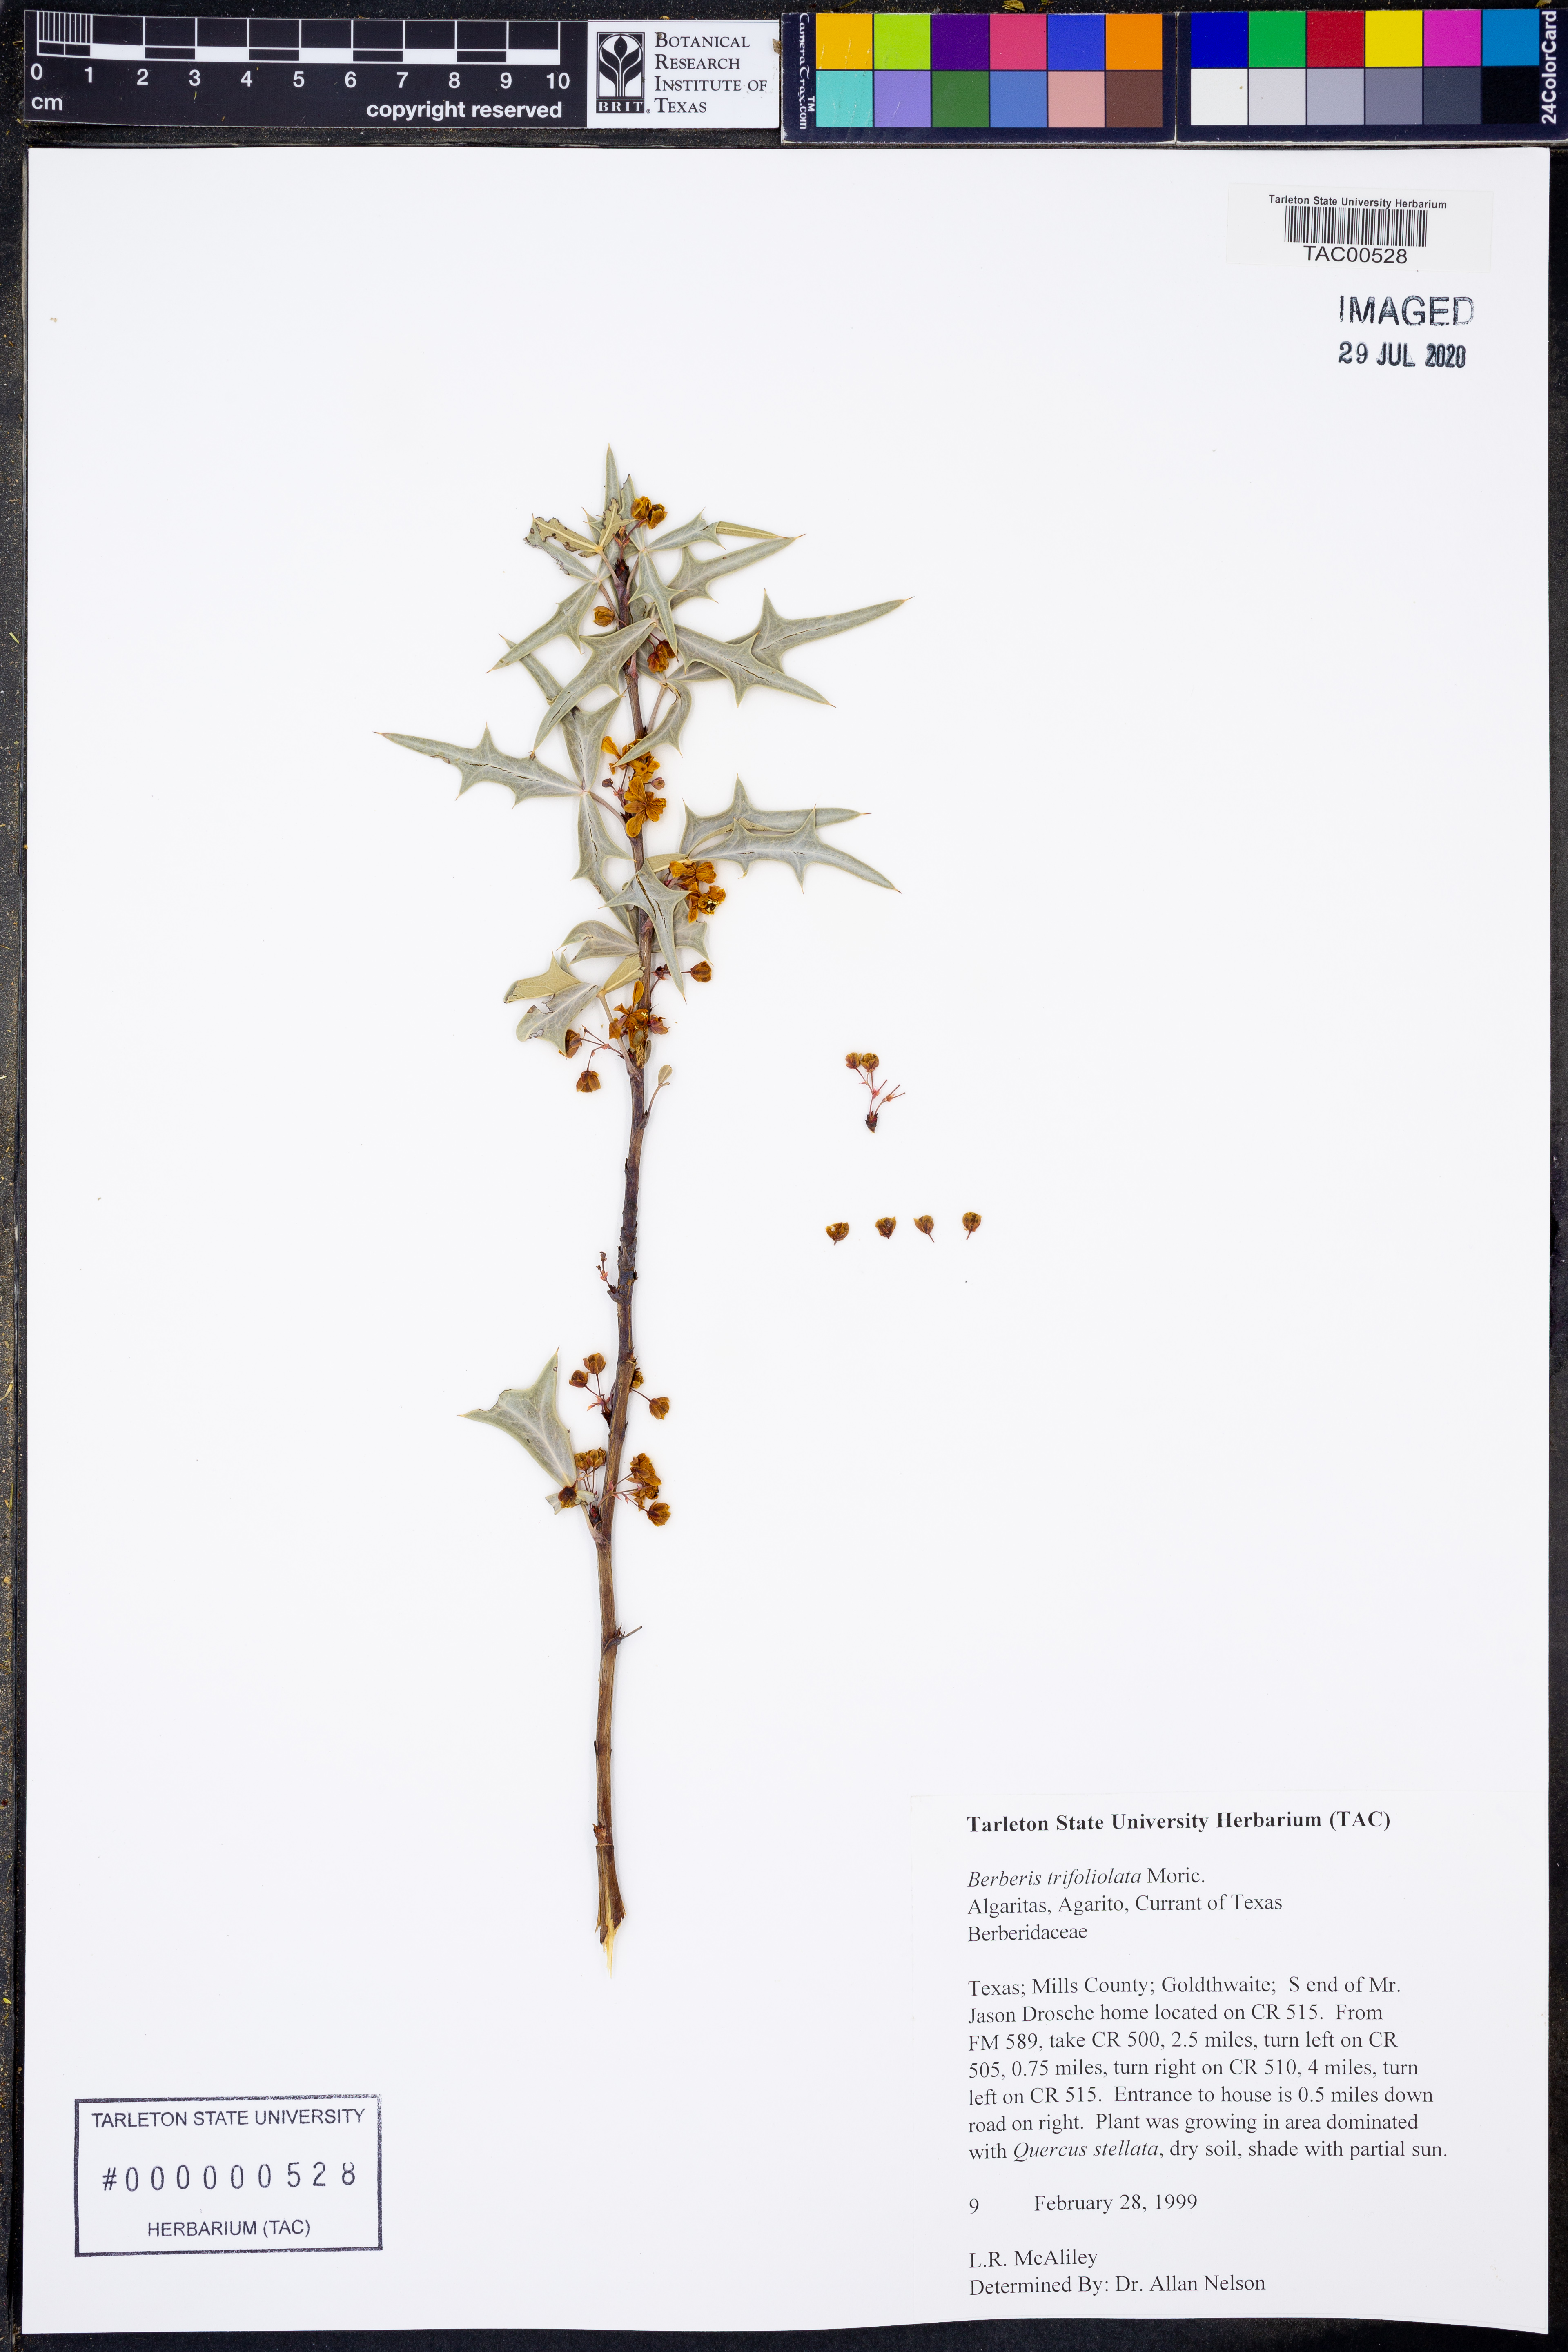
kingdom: Plantae
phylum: Tracheophyta
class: Magnoliopsida
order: Ranunculales
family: Berberidaceae
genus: Alloberberis
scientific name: Alloberberis trifoliolata
